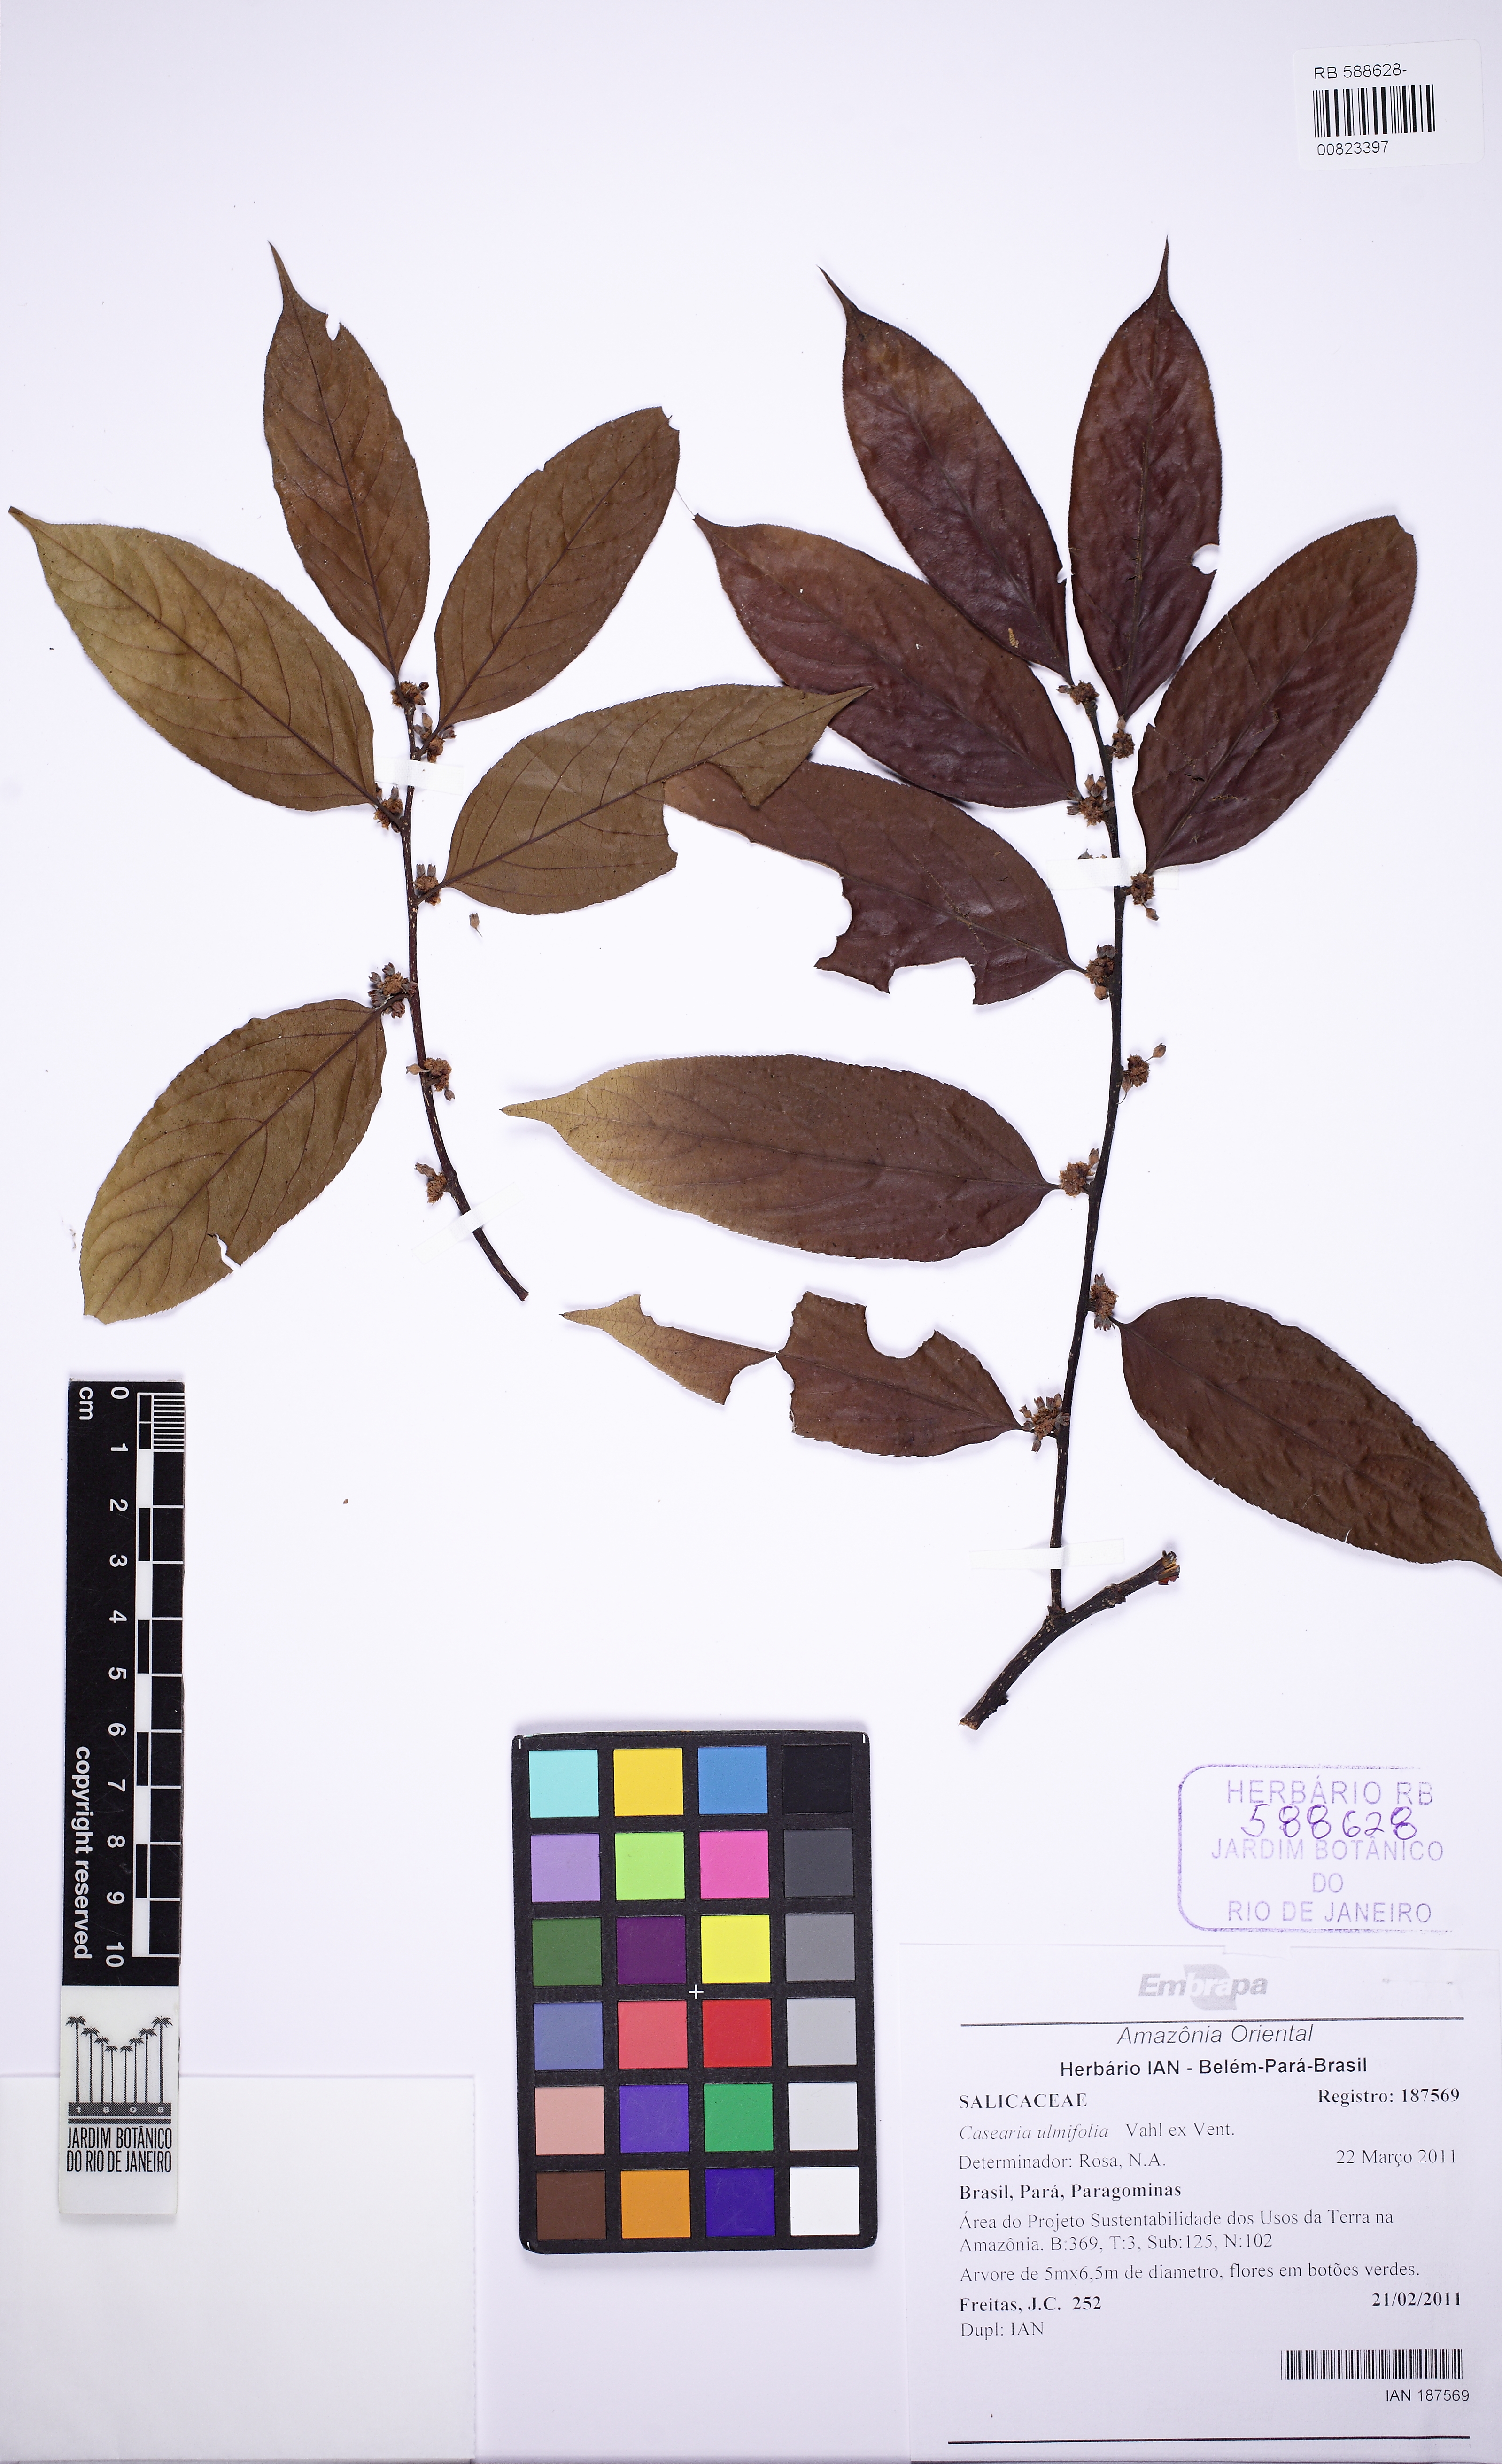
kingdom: Plantae
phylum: Tracheophyta
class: Magnoliopsida
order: Malpighiales
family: Salicaceae
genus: Casearia
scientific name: Casearia ulmifolia
